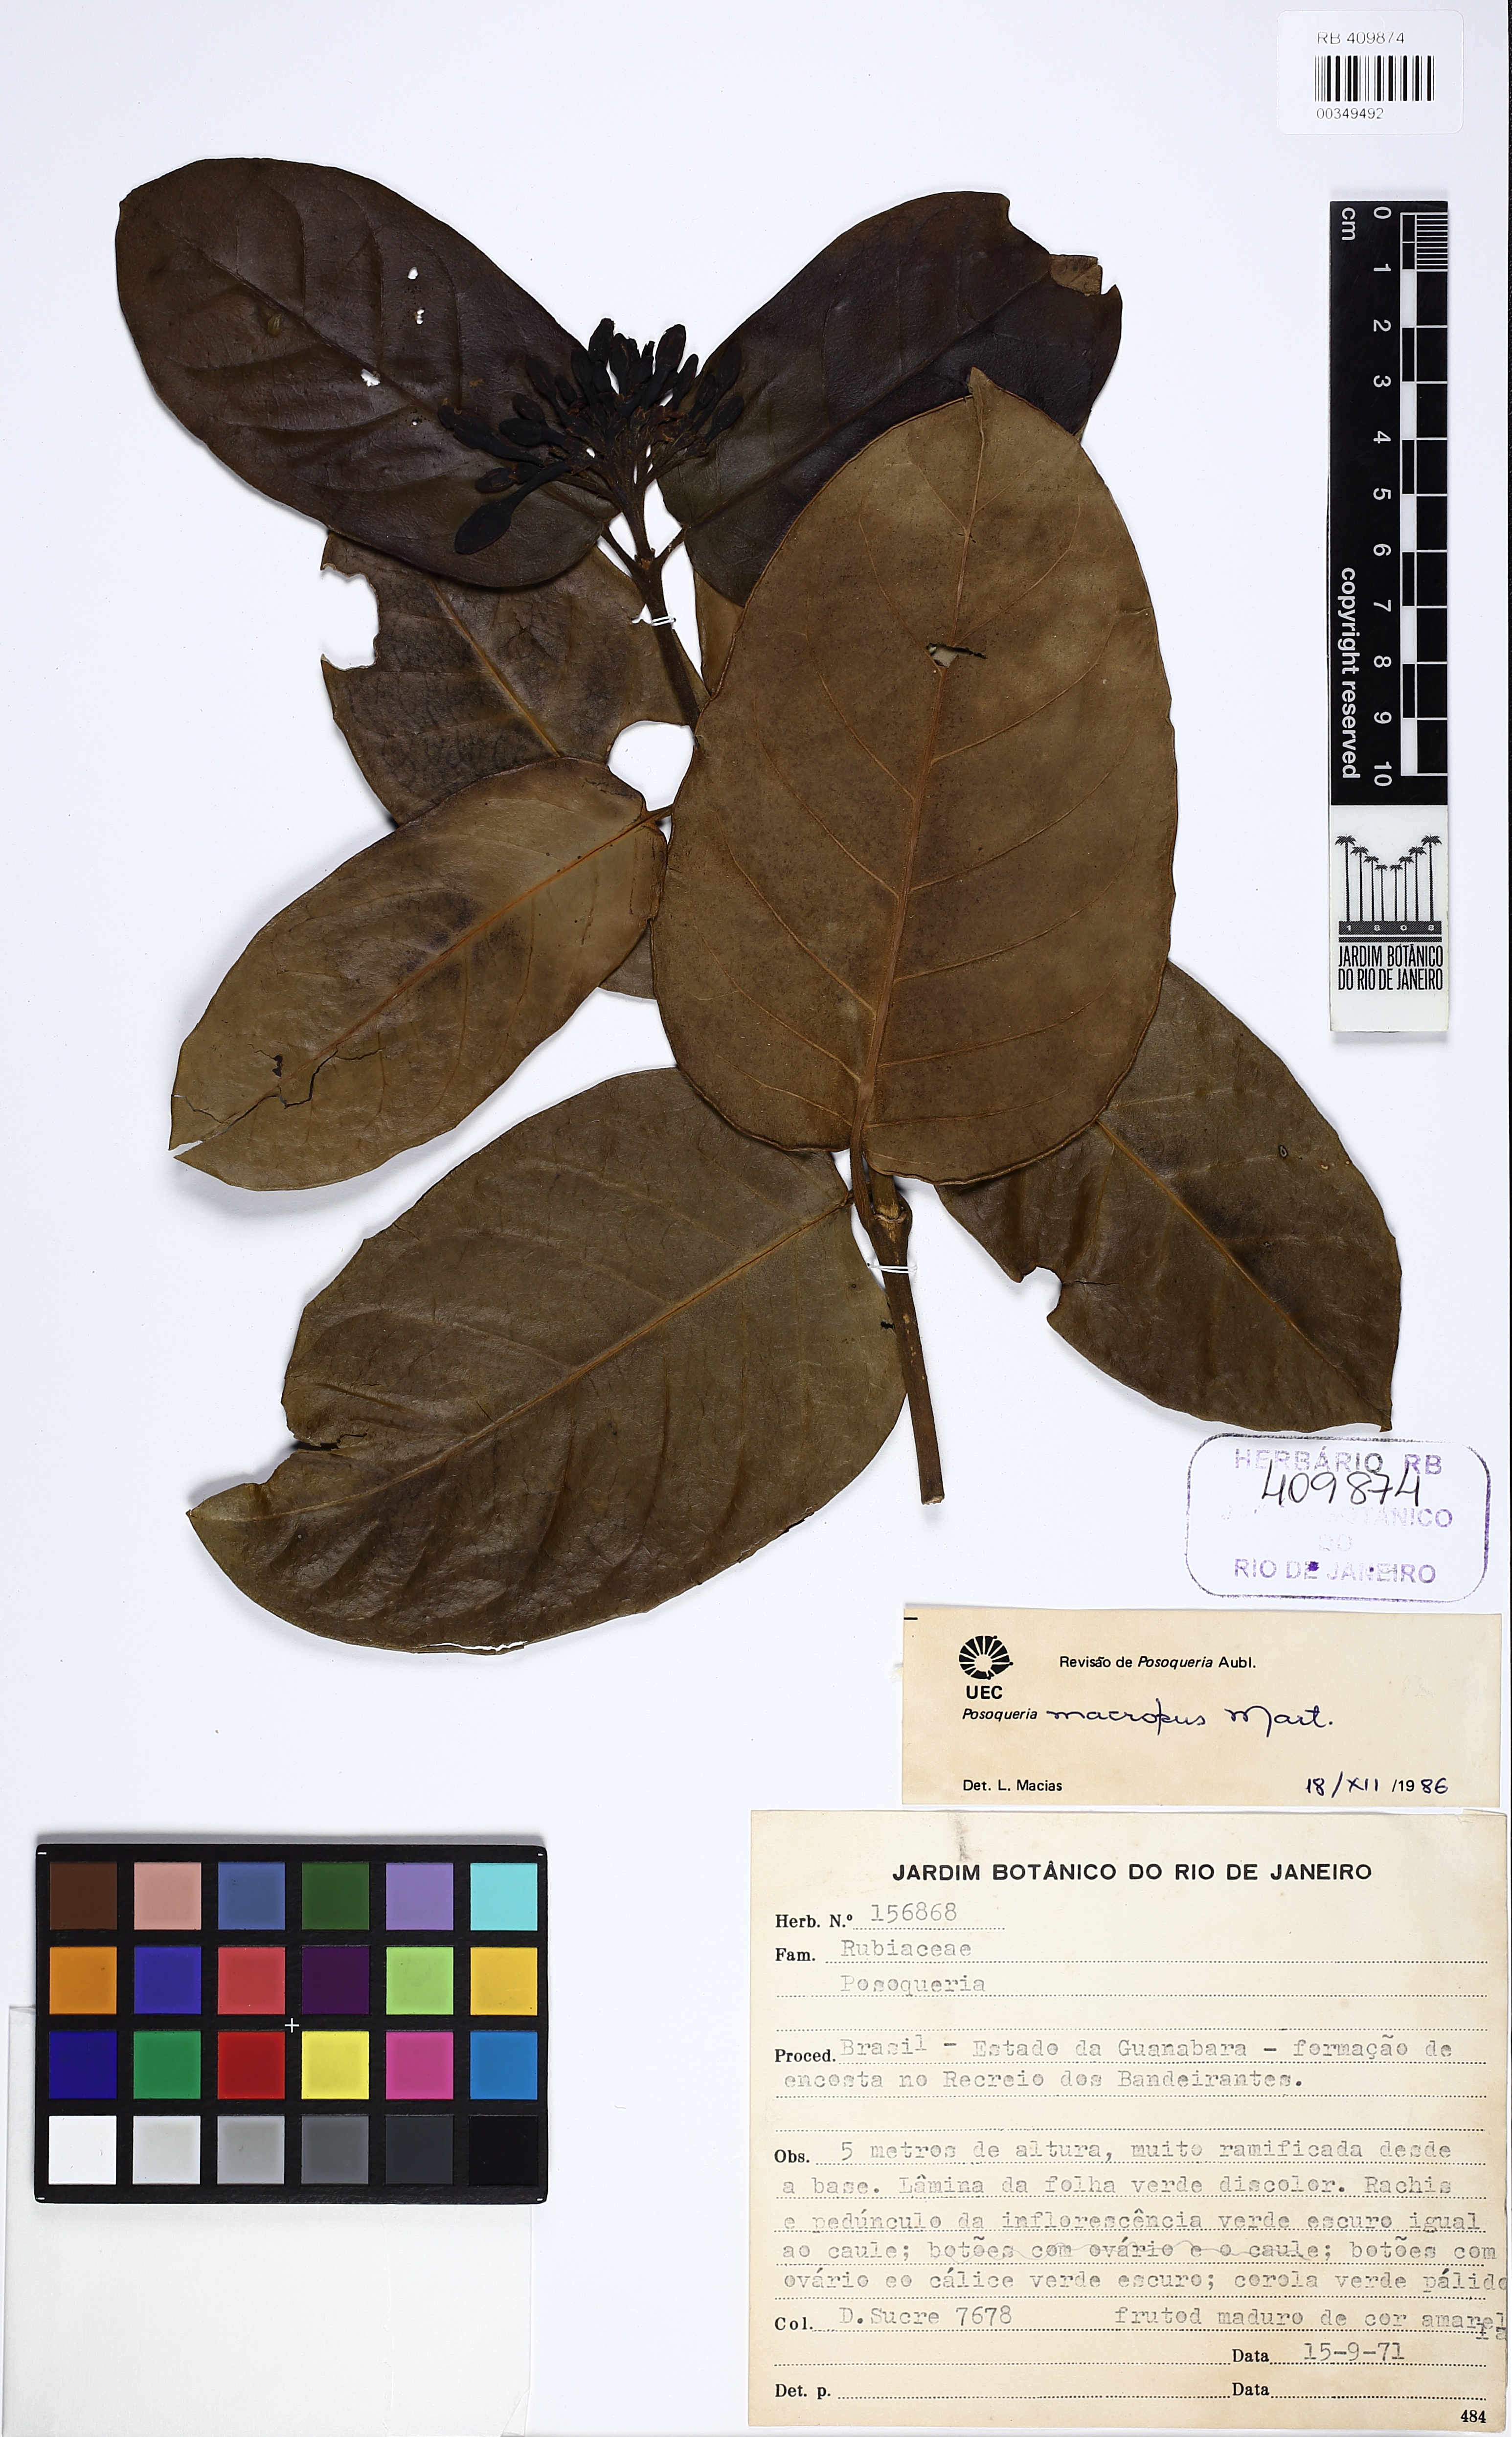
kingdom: Plantae
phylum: Tracheophyta
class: Magnoliopsida
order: Gentianales
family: Rubiaceae
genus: Posoqueria
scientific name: Posoqueria latifolia
